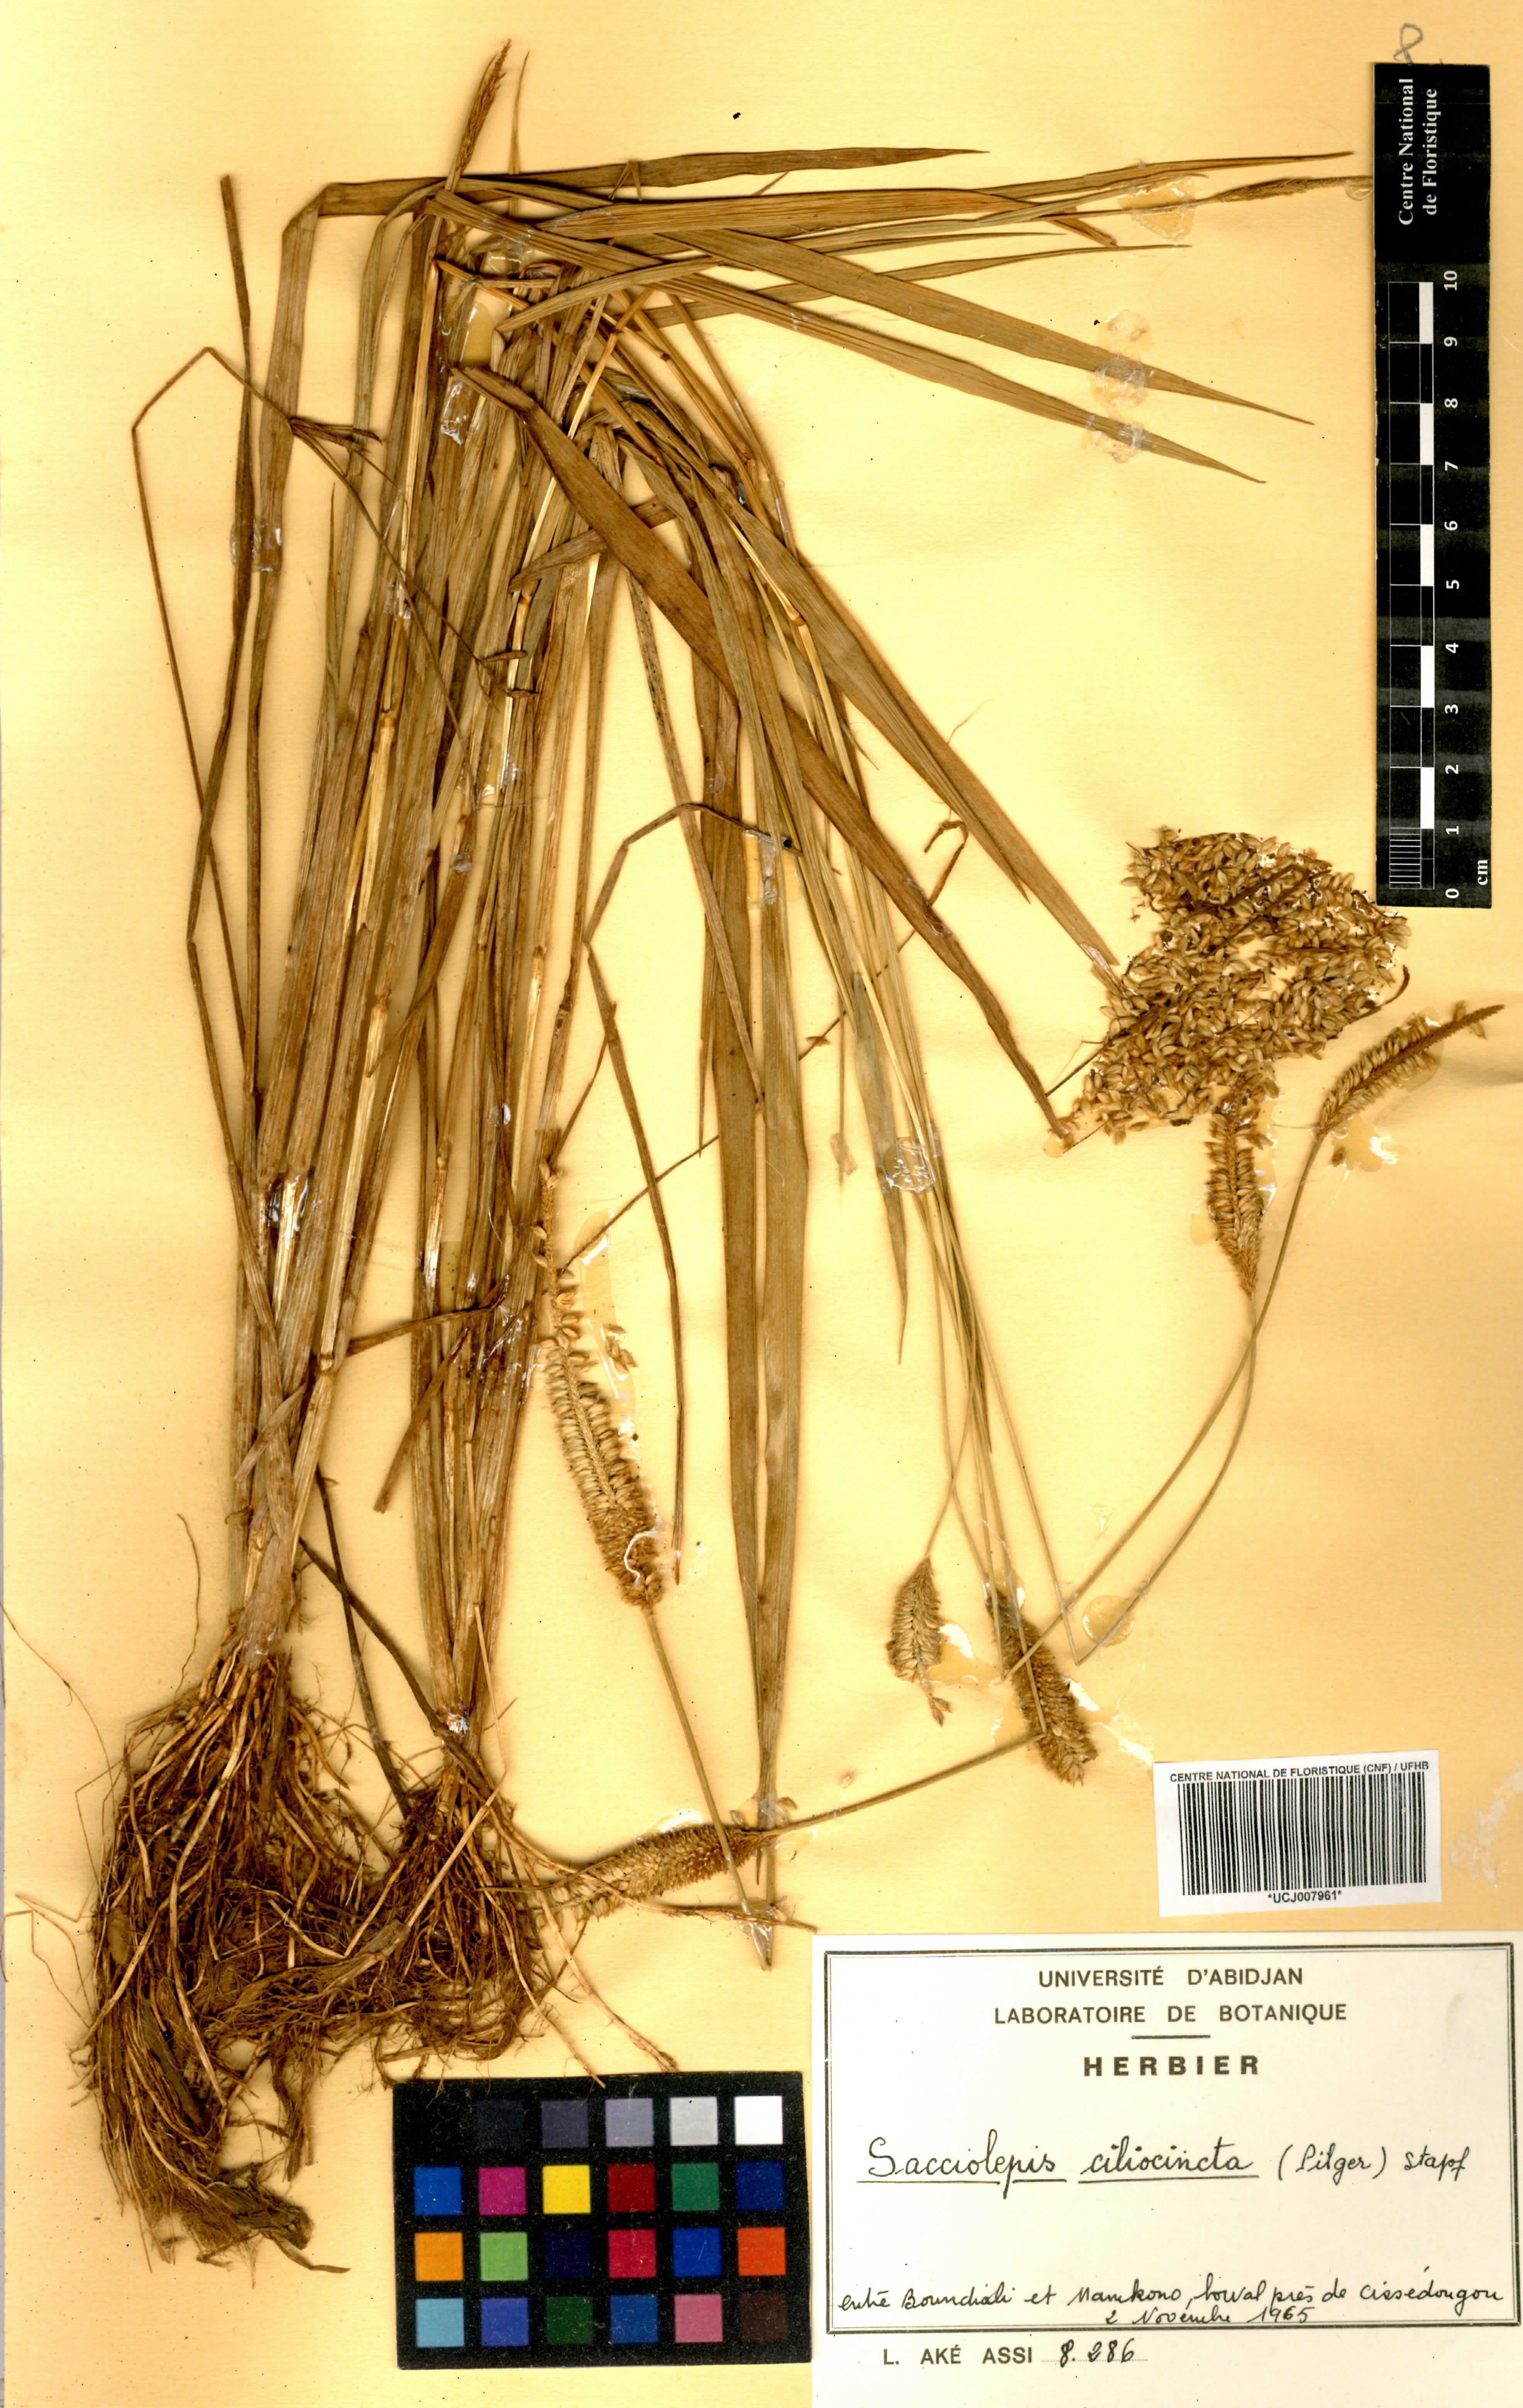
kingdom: Plantae
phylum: Tracheophyta
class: Liliopsida
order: Poales
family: Poaceae
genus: Sacciolepis
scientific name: Sacciolepis ciliocincta
